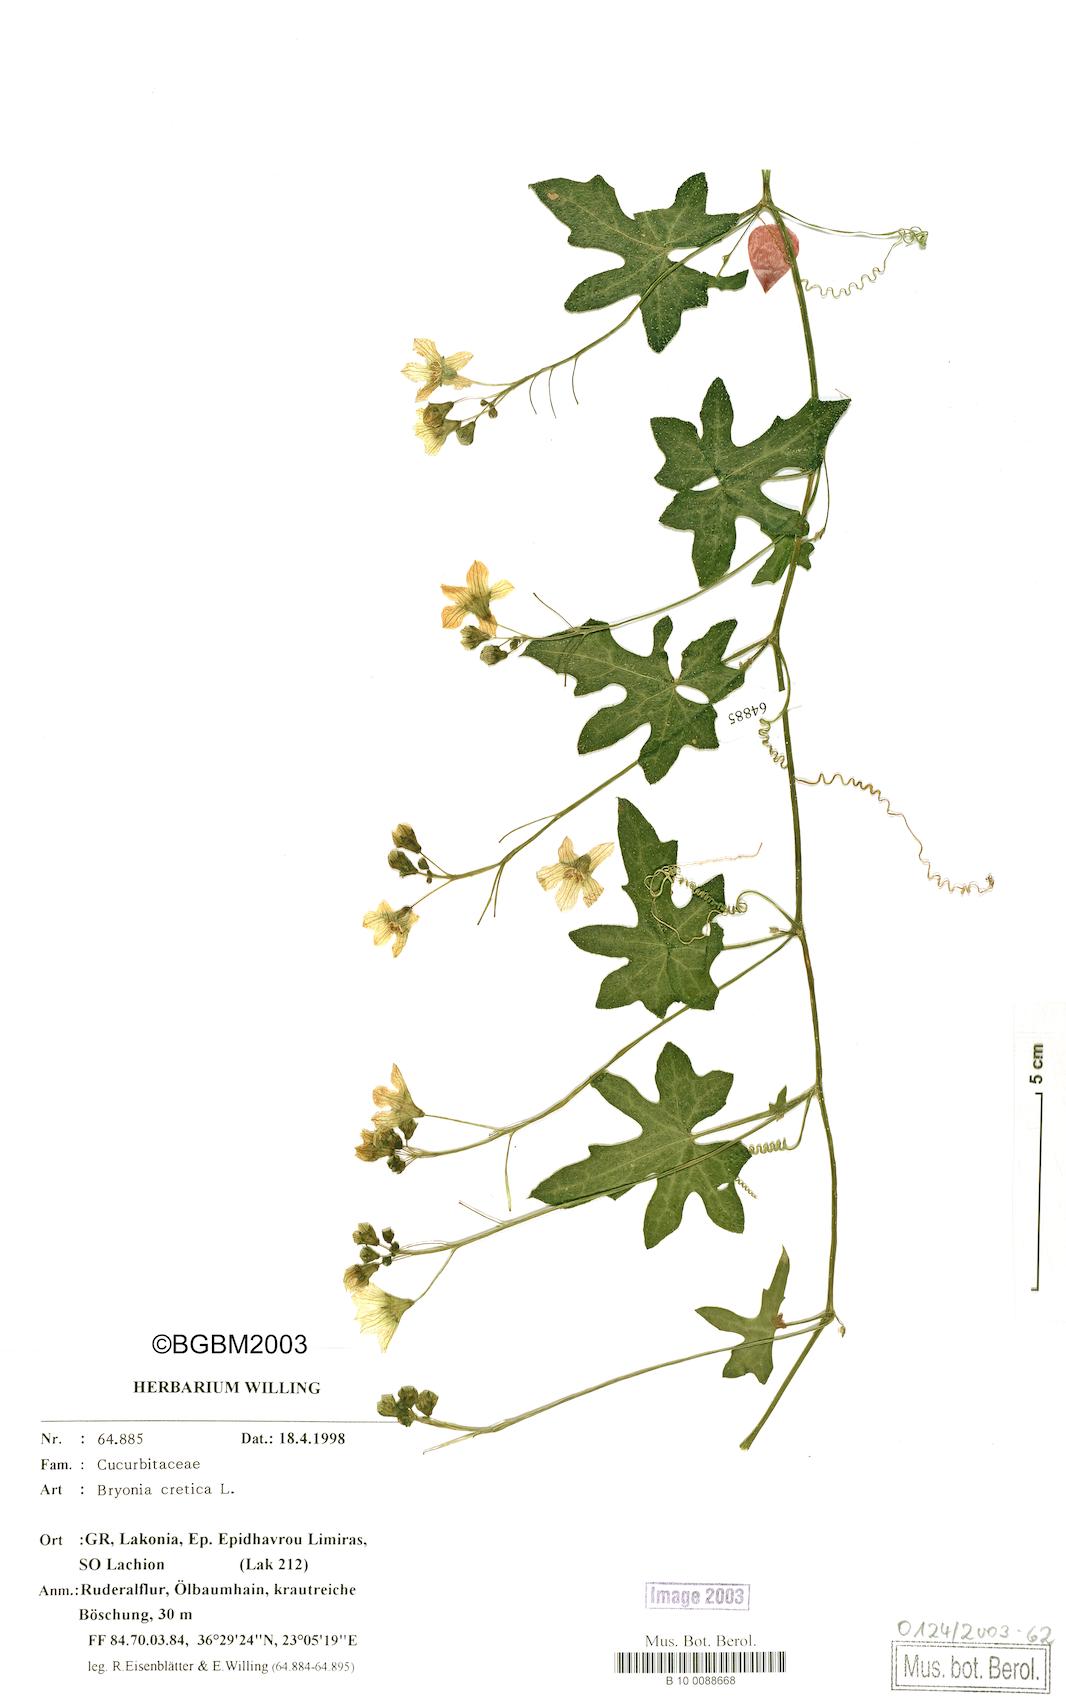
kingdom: Plantae
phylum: Tracheophyta
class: Magnoliopsida
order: Cucurbitales
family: Cucurbitaceae
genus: Bryonia
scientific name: Bryonia cretica
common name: Cretan bryony
